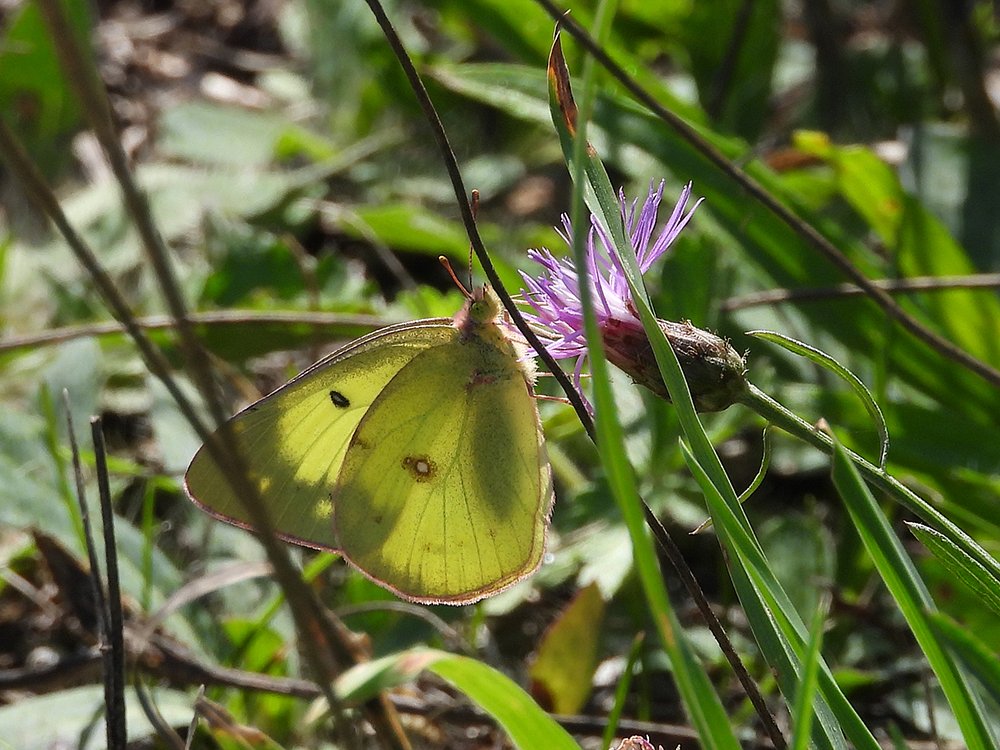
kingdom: Animalia
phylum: Arthropoda
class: Insecta
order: Lepidoptera
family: Pieridae
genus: Colias
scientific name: Colias philodice
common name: Clouded Sulphur
